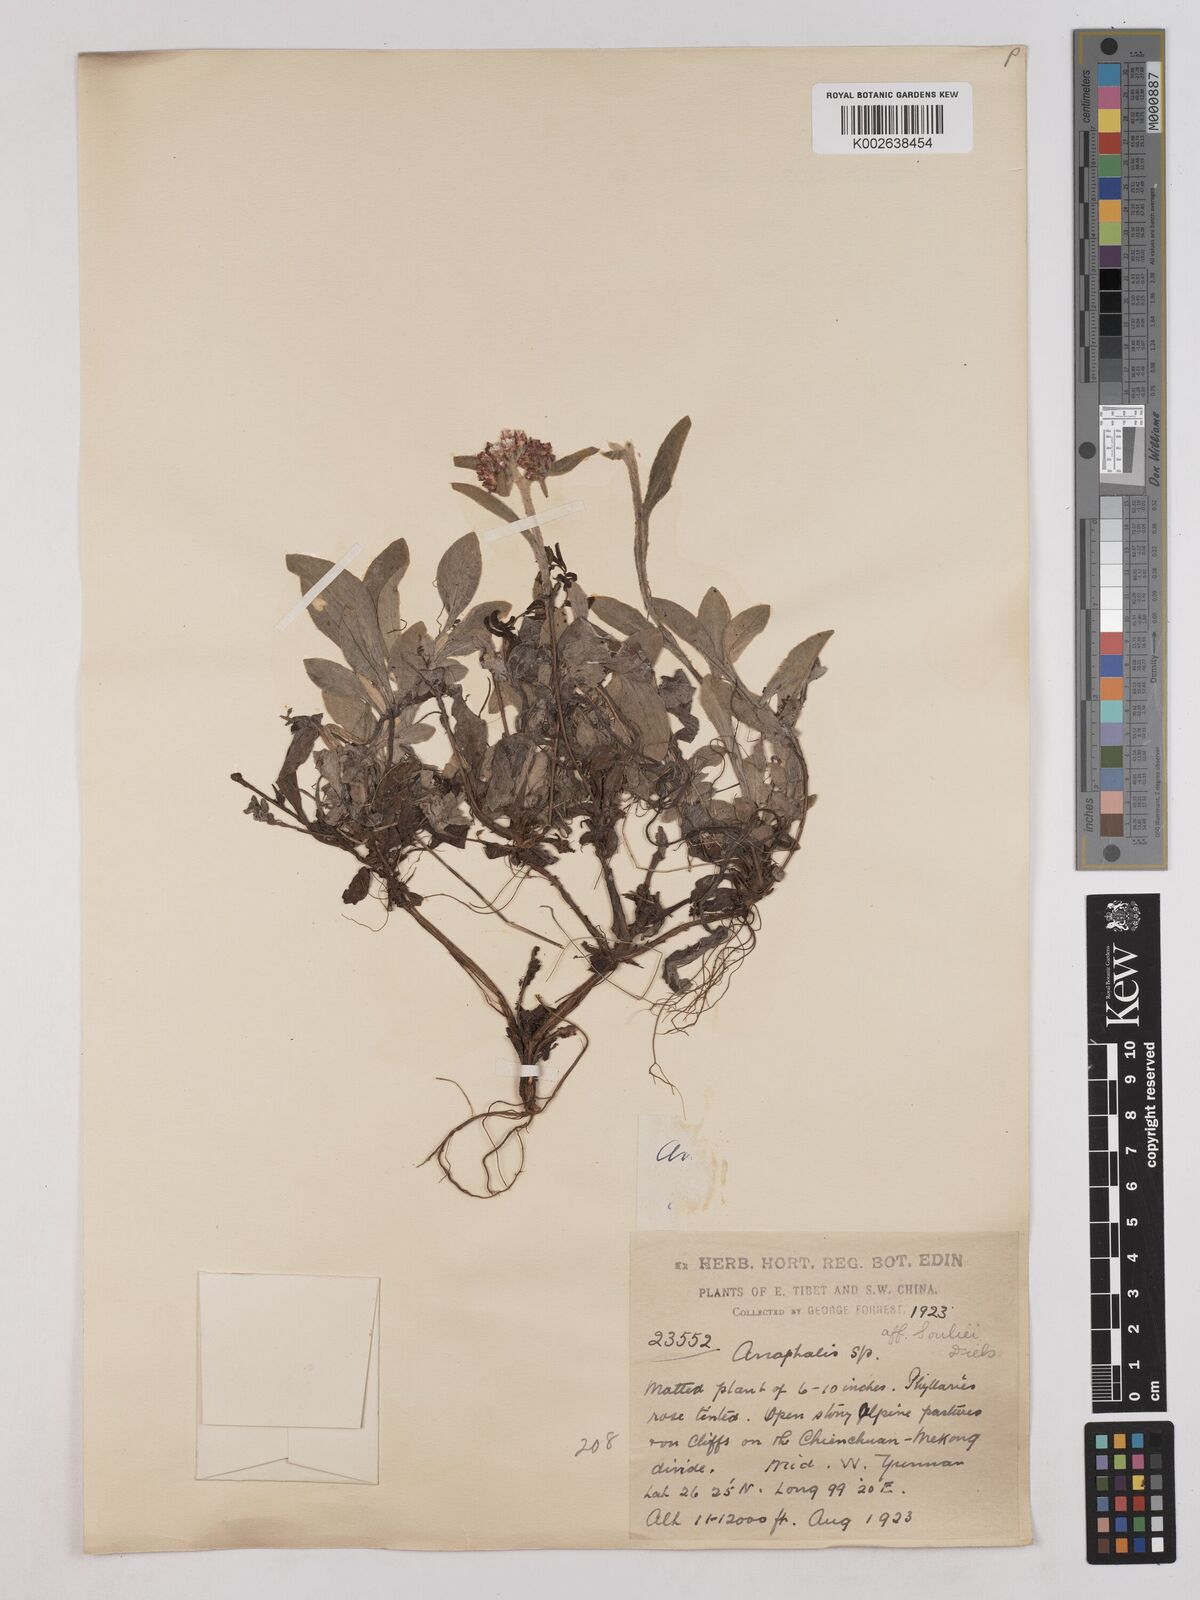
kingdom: Plantae
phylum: Tracheophyta
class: Magnoliopsida
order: Asterales
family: Asteraceae
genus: Anaphalis
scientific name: Anaphalis souliei
